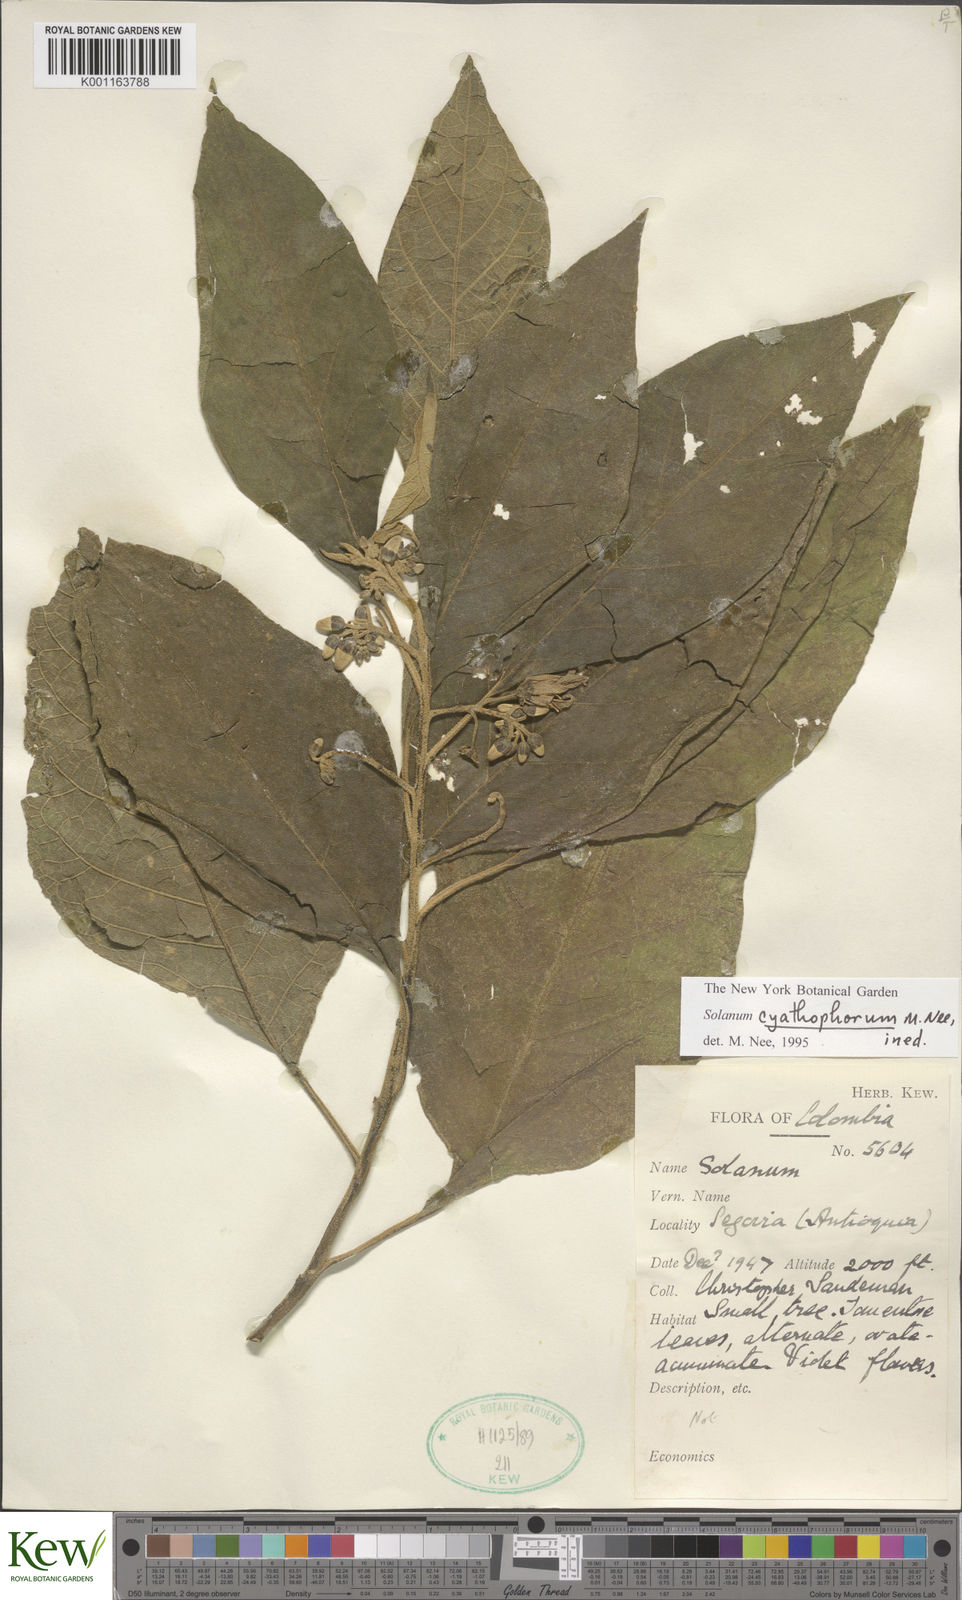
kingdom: Plantae
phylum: Tracheophyta
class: Magnoliopsida
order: Solanales
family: Solanaceae
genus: Solanum
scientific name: Solanum cyathophorum
